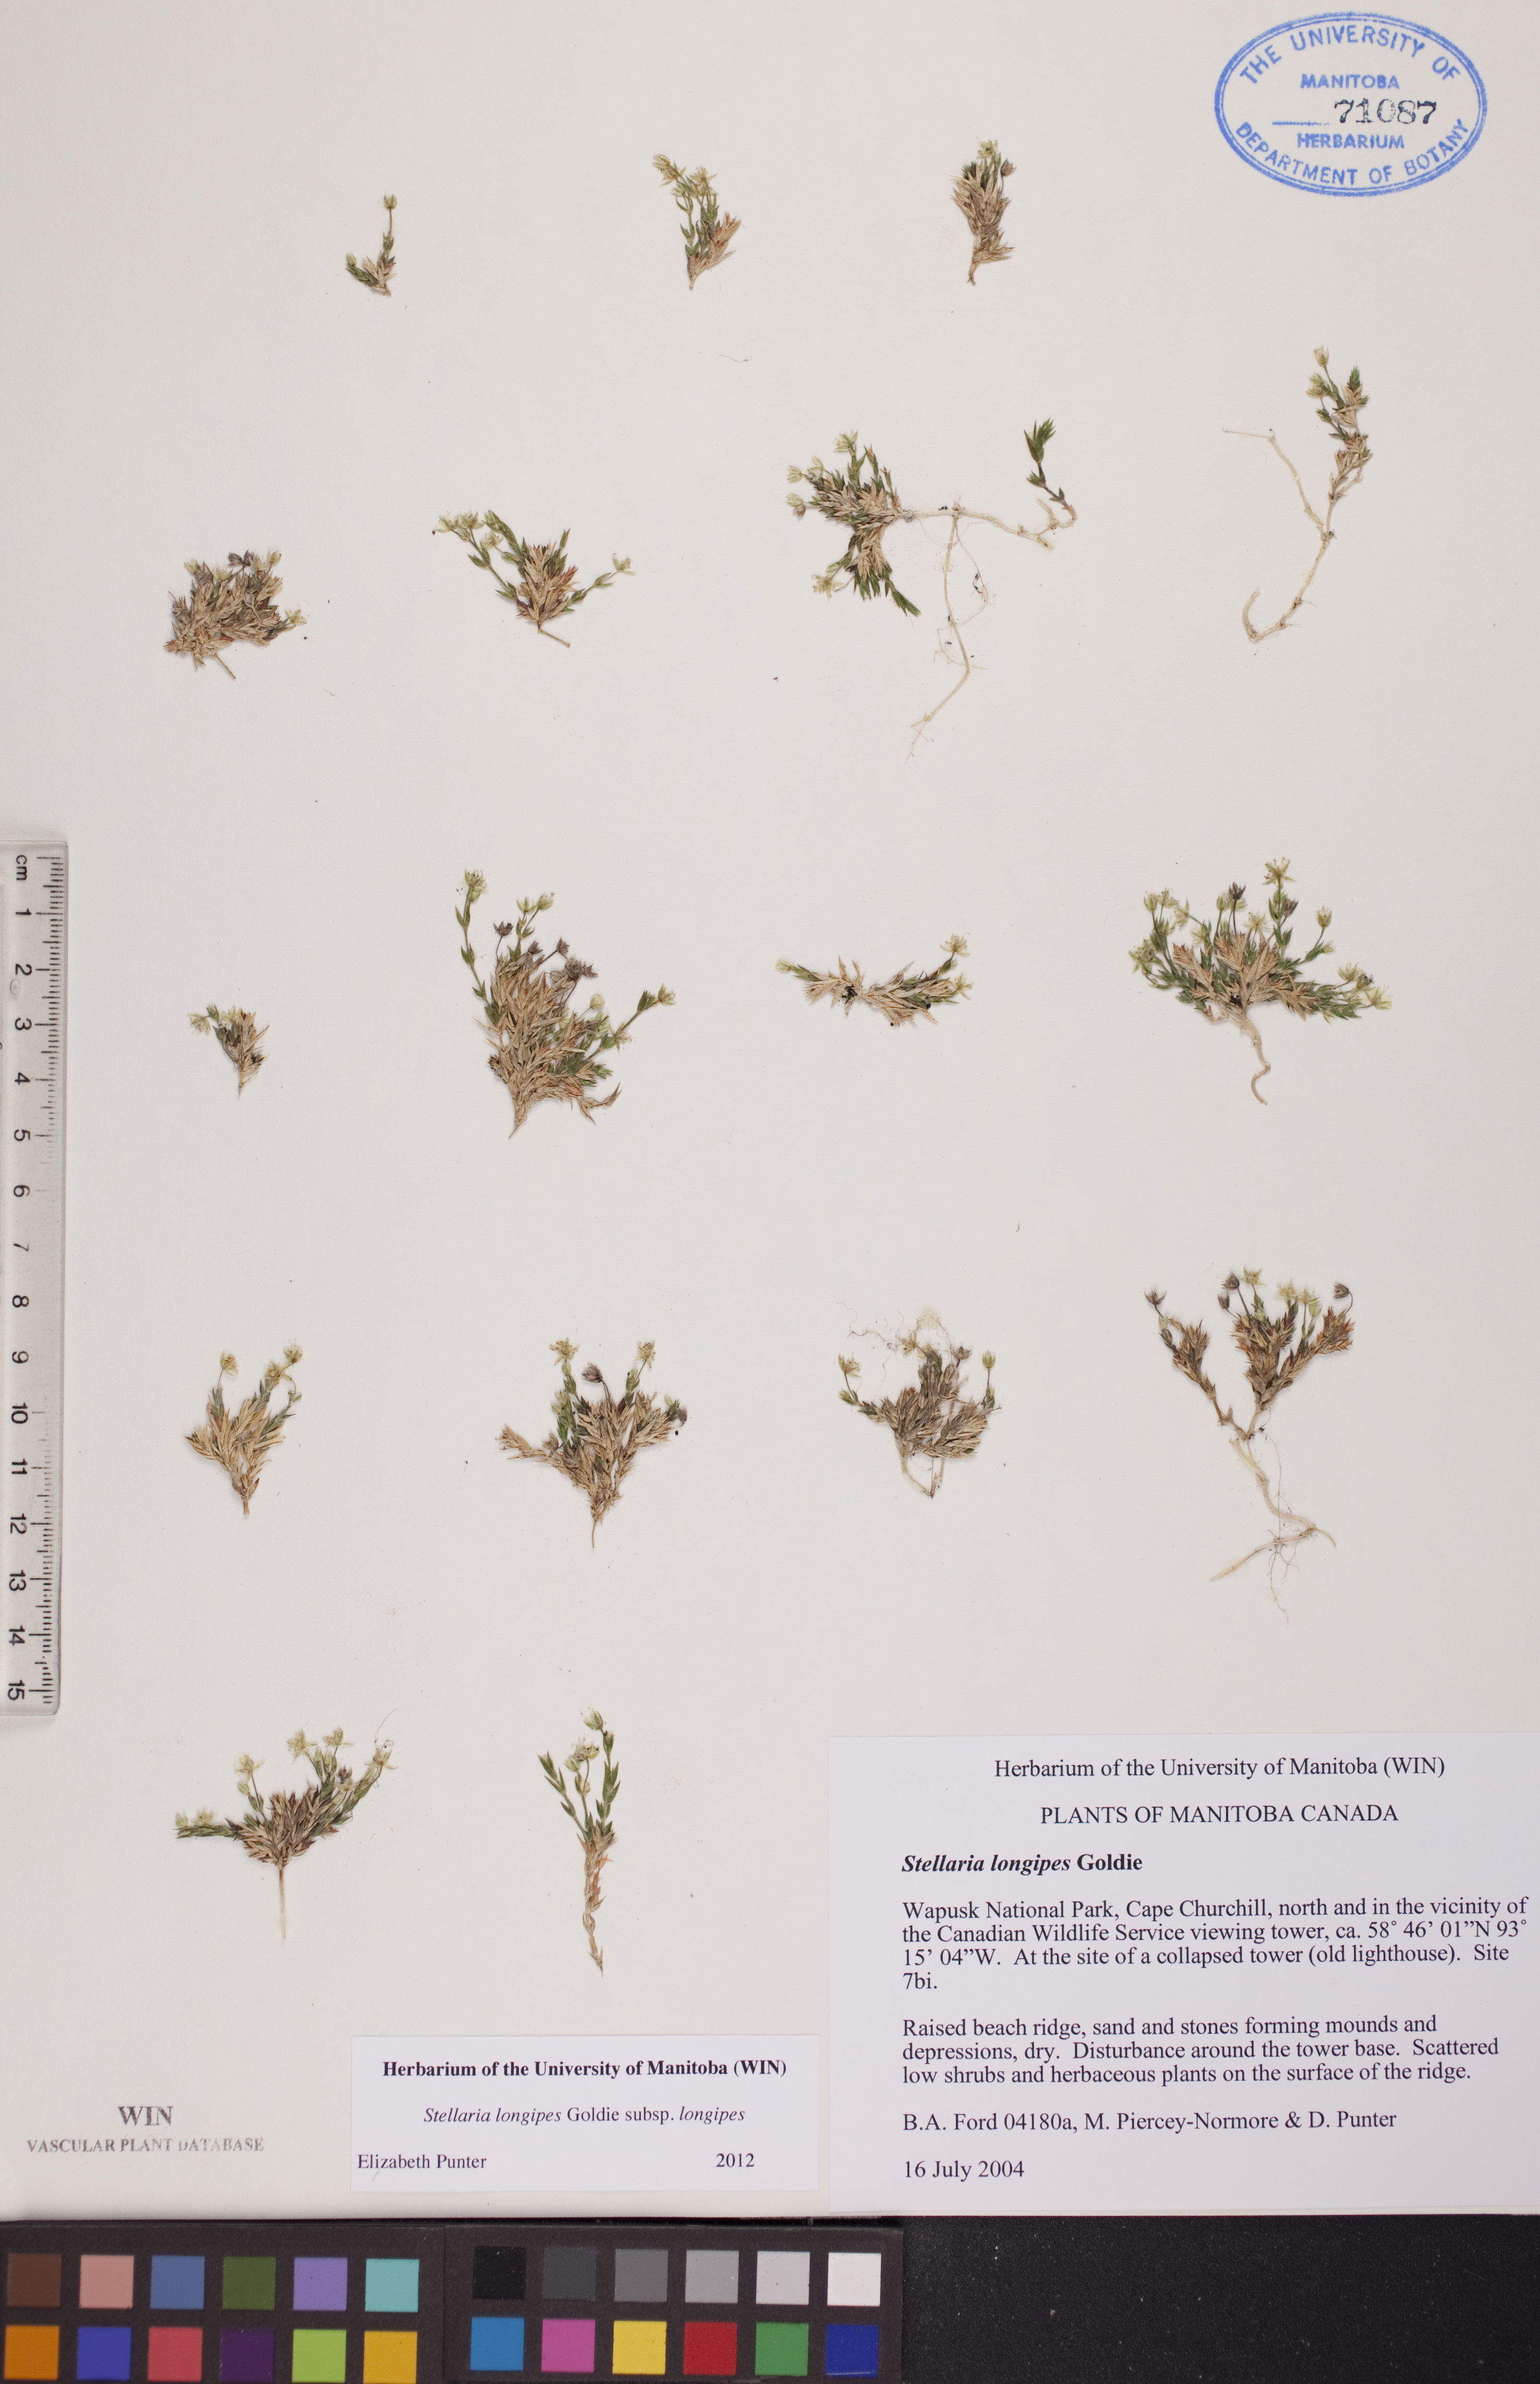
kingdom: Plantae
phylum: Tracheophyta
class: Magnoliopsida
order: Caryophyllales
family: Caryophyllaceae
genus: Stellaria
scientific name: Stellaria longipes
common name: Goldie's starwort
